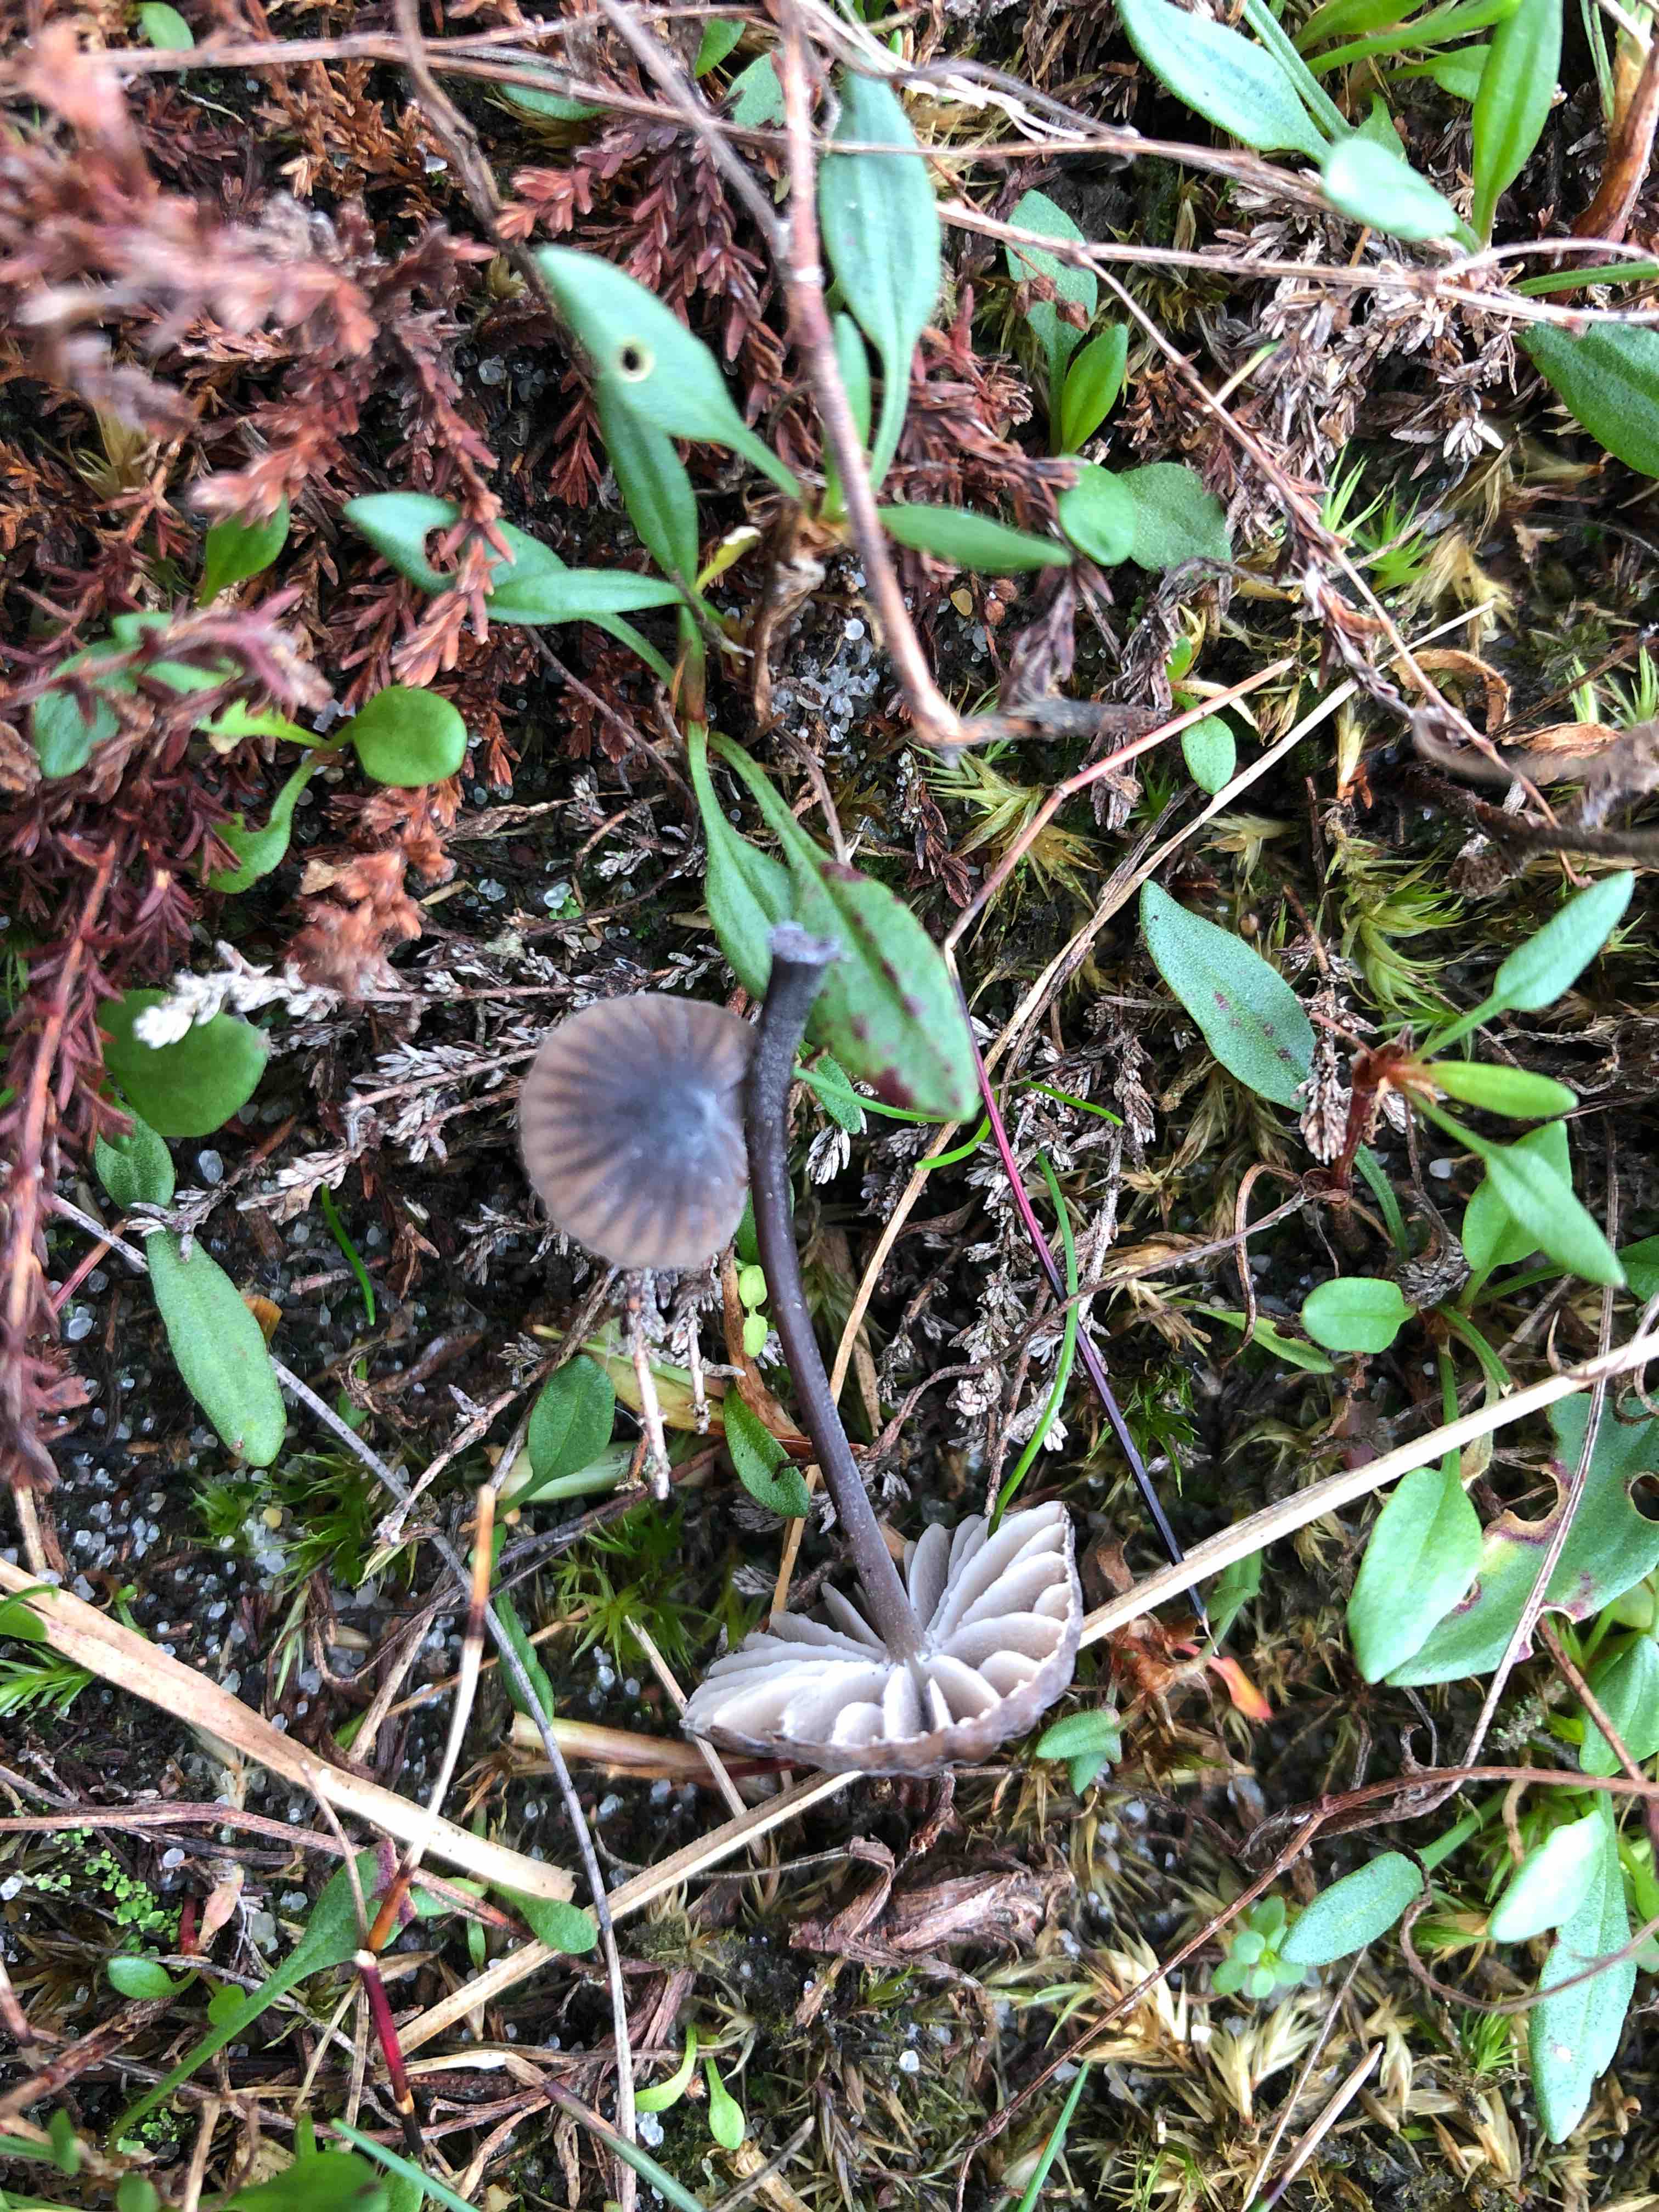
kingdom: Fungi
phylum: Basidiomycota
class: Agaricomycetes
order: Agaricales
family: Mycenaceae
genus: Mycena
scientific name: Mycena galopus
